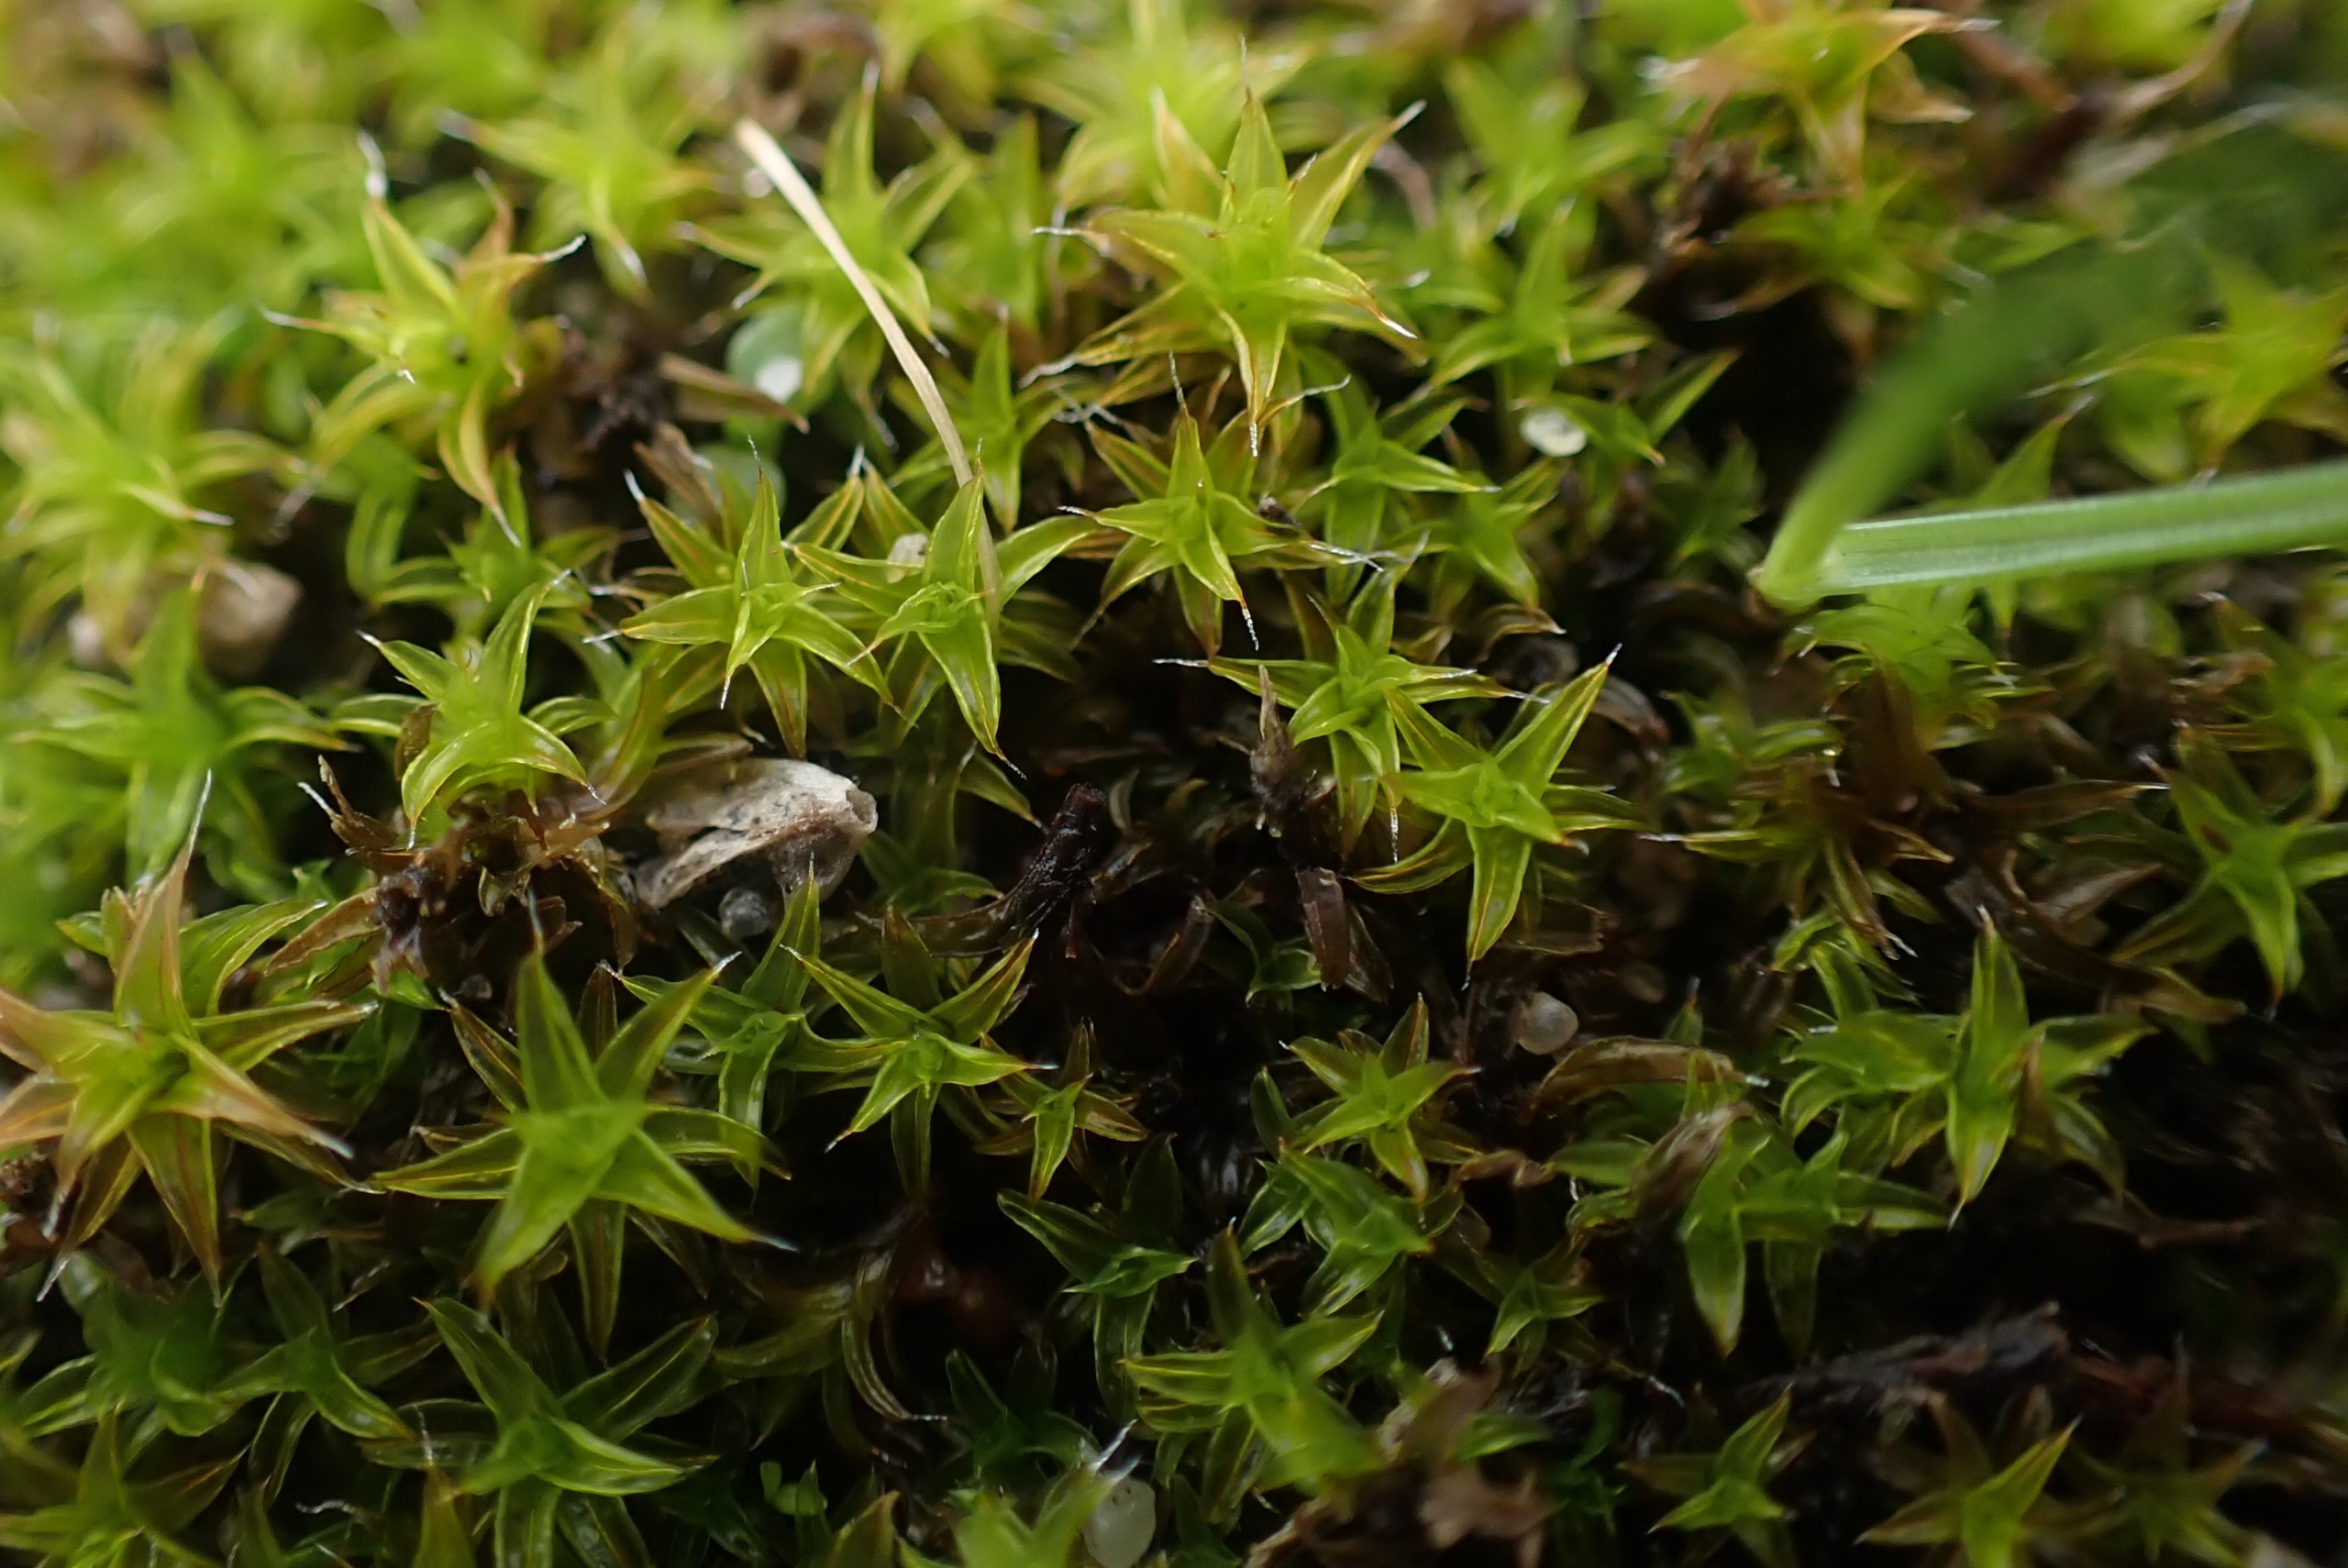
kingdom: Plantae
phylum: Bryophyta
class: Bryopsida
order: Pottiales
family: Pottiaceae
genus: Syntrichia
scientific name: Syntrichia ruralis
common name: Spidsbladet hårstjerne
